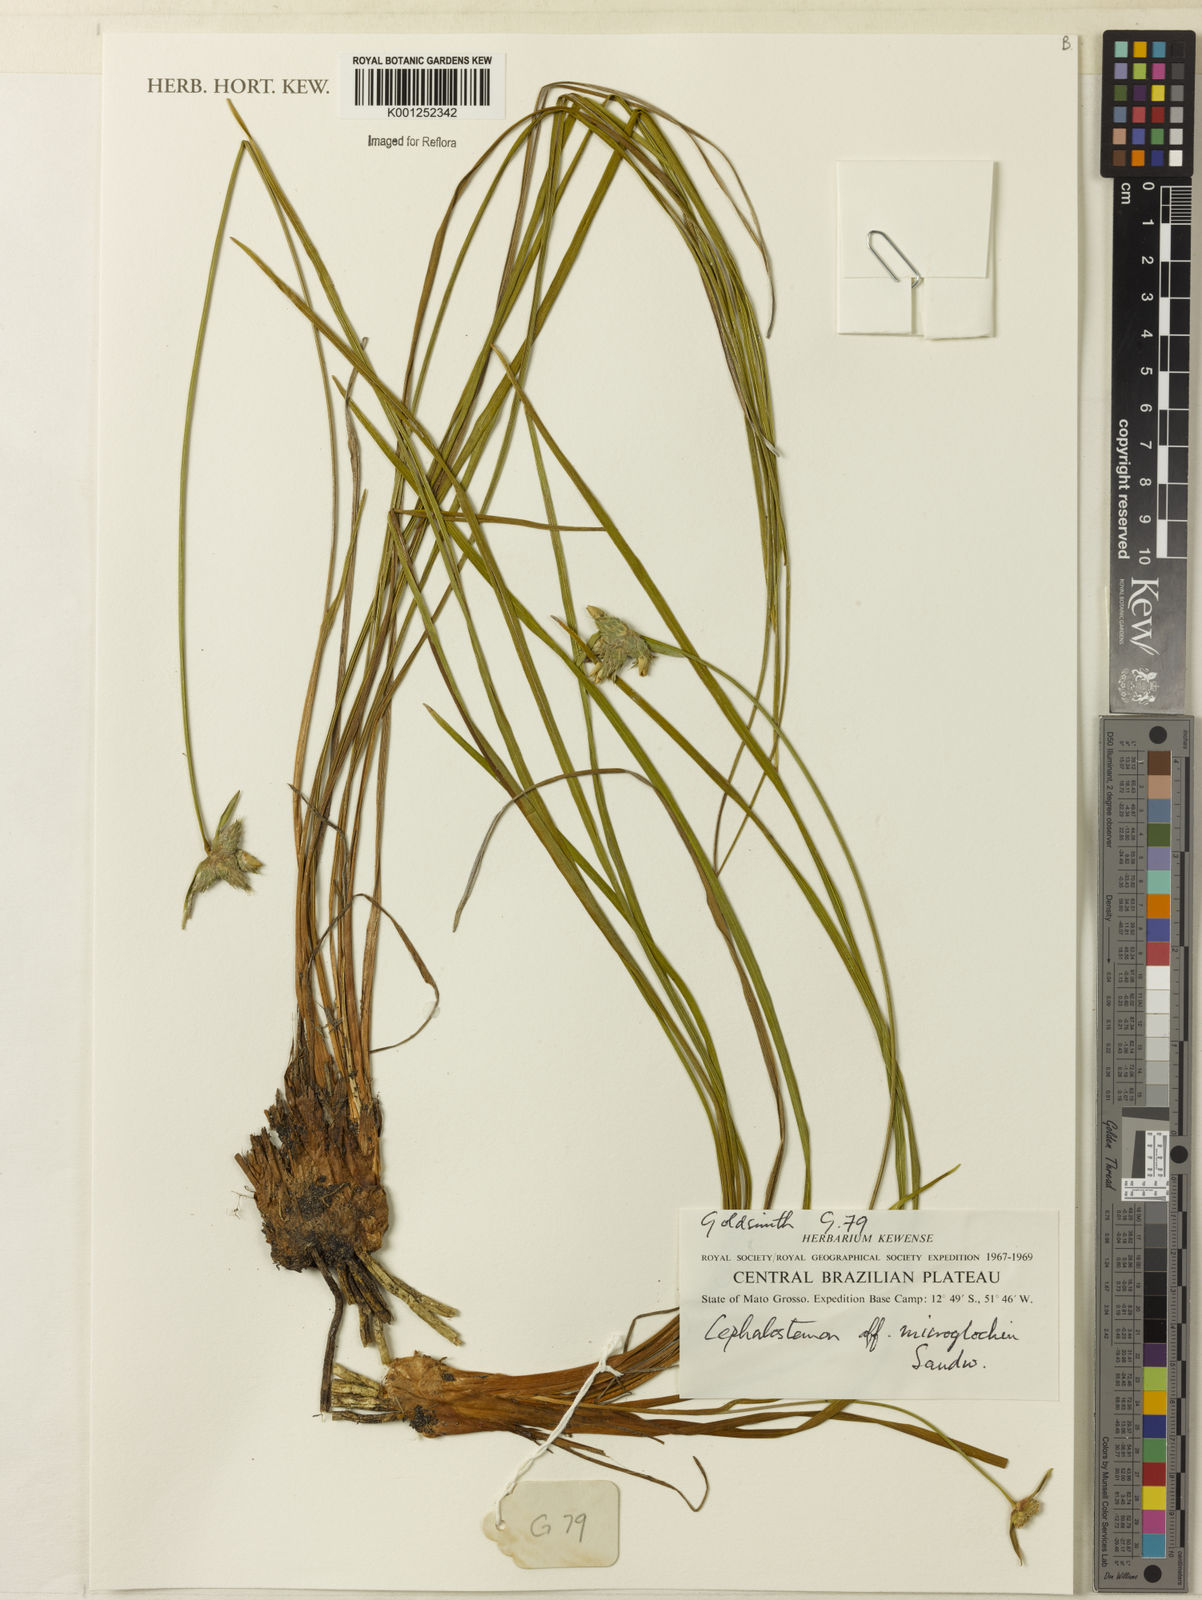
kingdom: Plantae
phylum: Tracheophyta
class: Liliopsida
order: Poales
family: Rapateaceae
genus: Cephalostemon
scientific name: Cephalostemon microglochin
